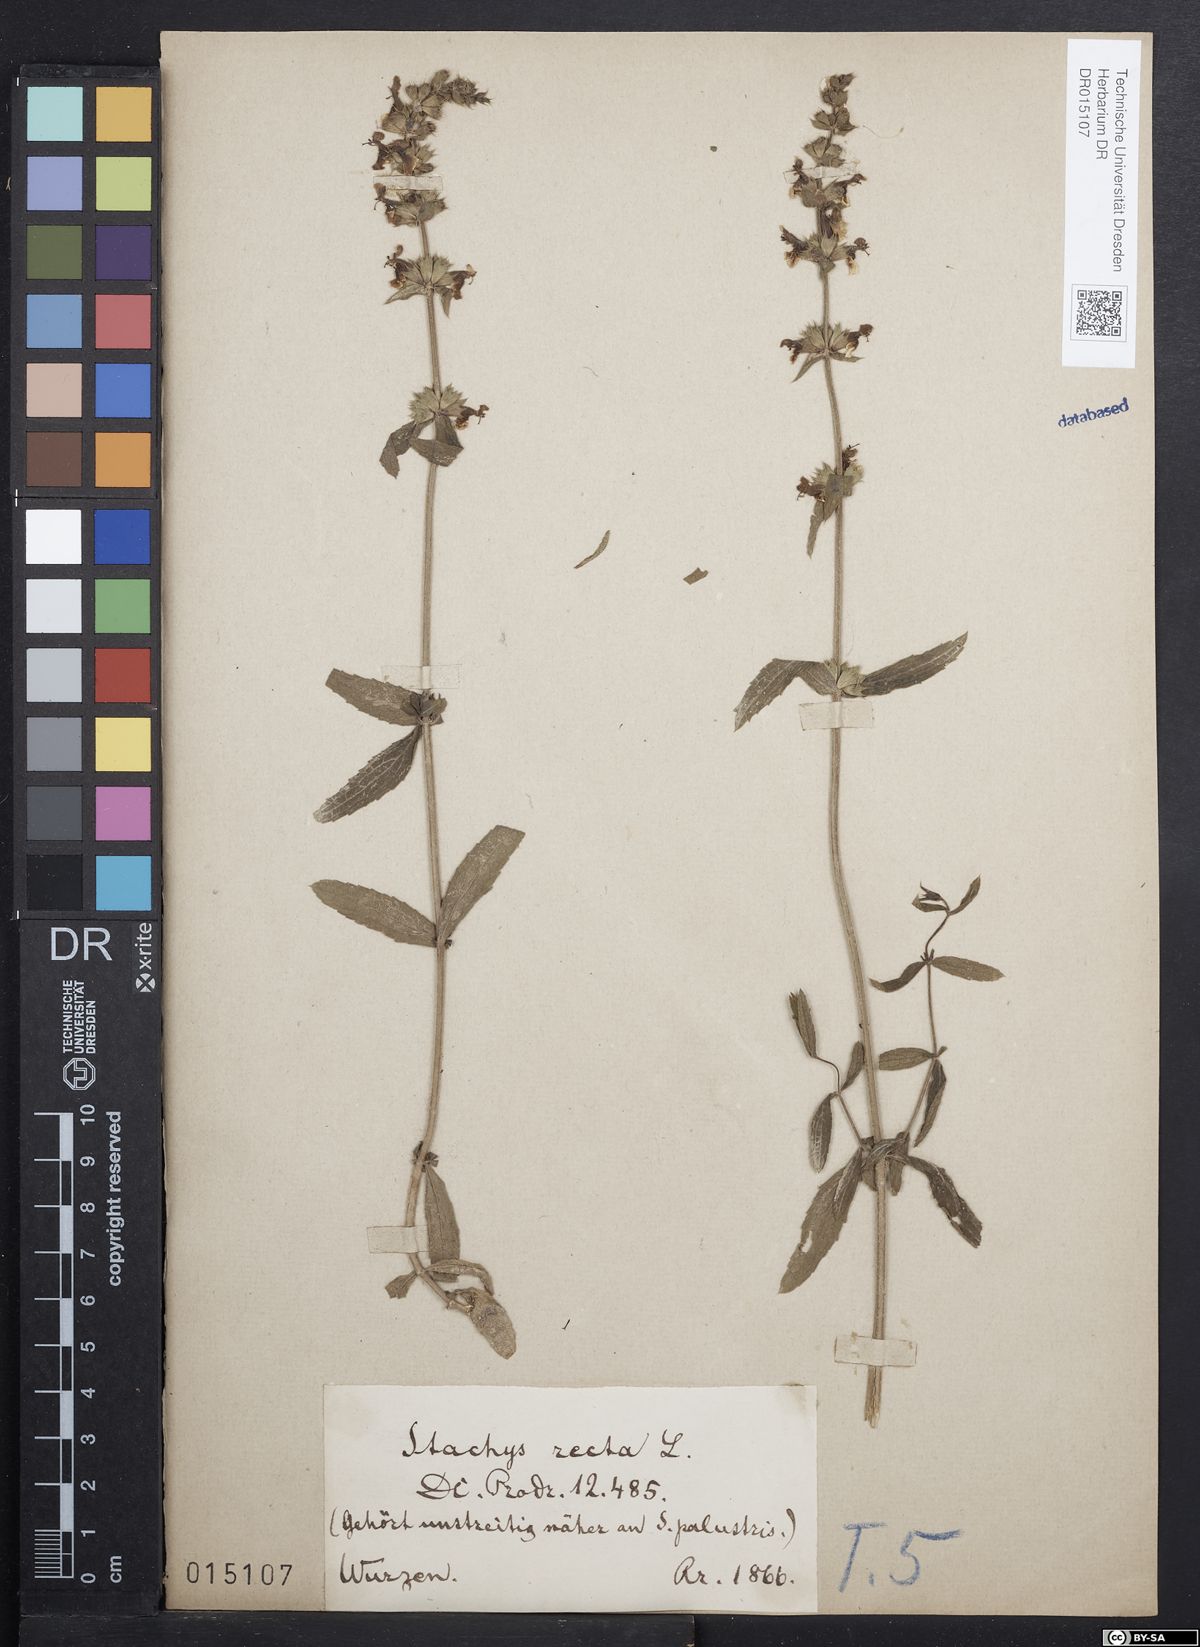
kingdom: Plantae
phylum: Tracheophyta
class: Magnoliopsida
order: Lamiales
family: Lamiaceae
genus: Stachys
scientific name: Stachys recta
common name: Perennial yellow-woundwort
